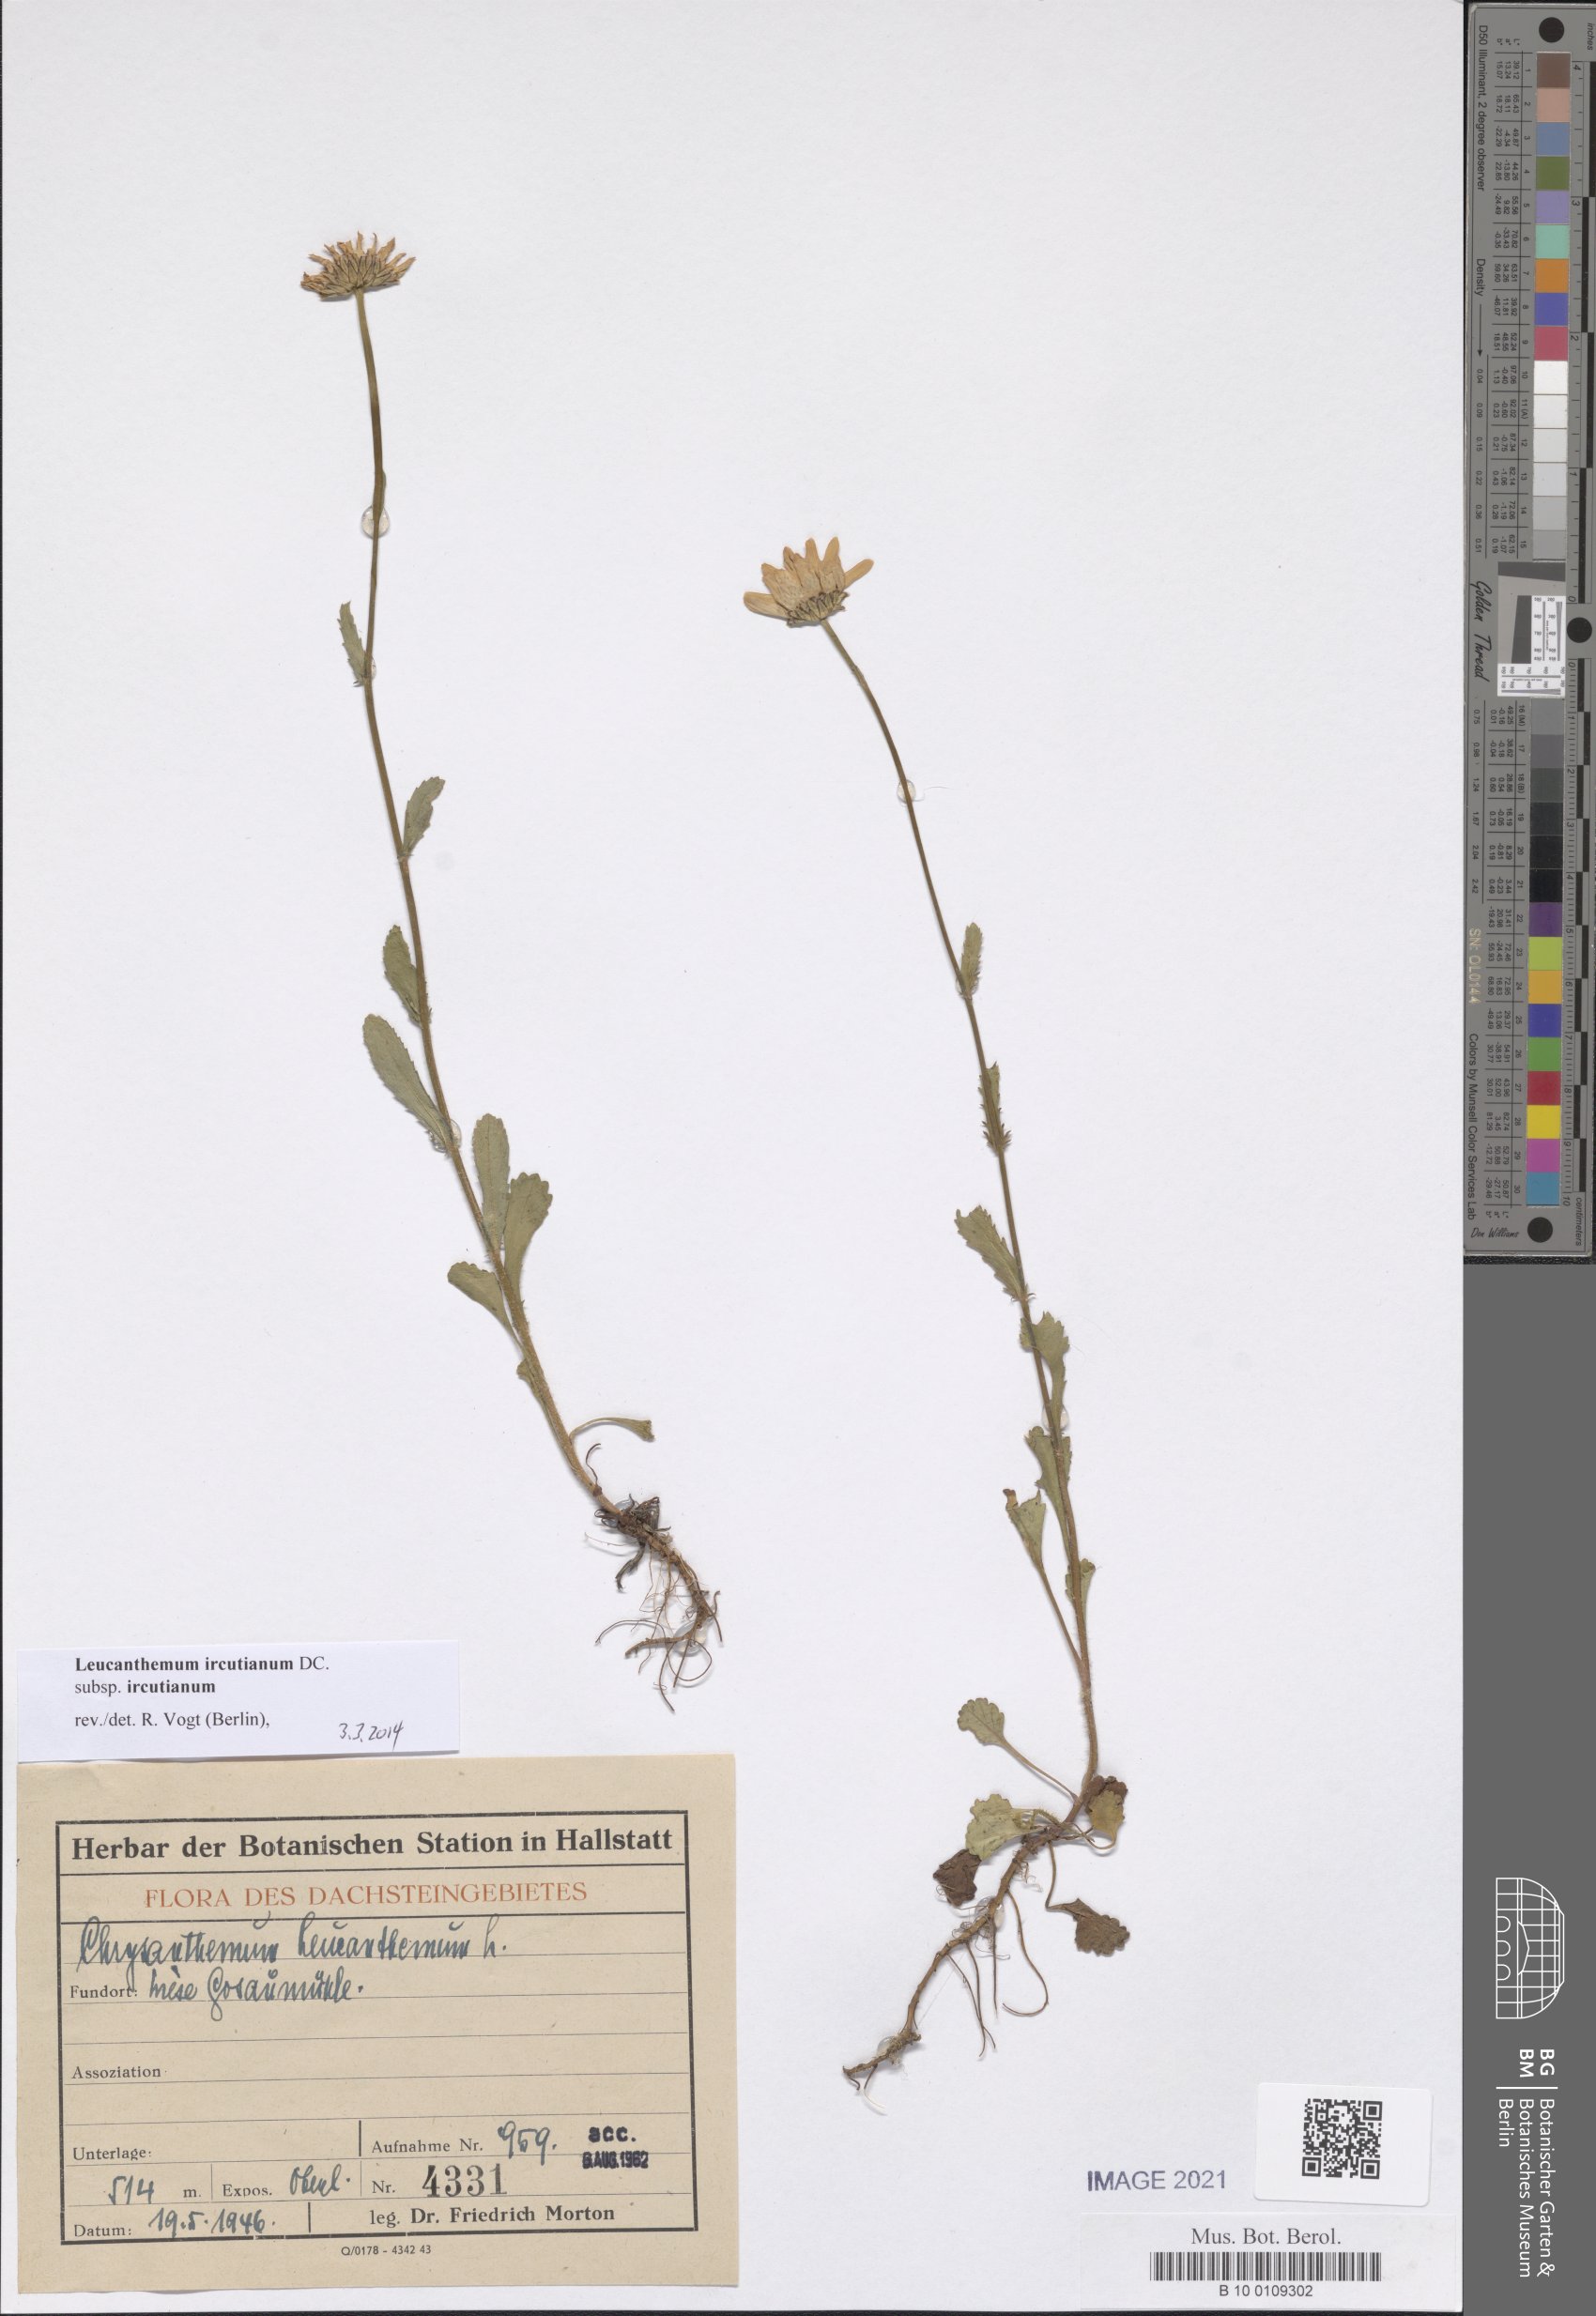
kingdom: Plantae
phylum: Tracheophyta
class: Magnoliopsida
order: Asterales
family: Asteraceae
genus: Leucanthemum
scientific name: Leucanthemum ircutianum
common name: Daisy
